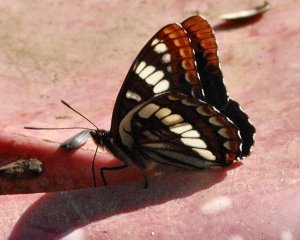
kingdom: Animalia
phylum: Arthropoda
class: Insecta
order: Lepidoptera
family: Nymphalidae
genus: Limenitis
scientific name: Limenitis lorquini
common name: Lorquin's Admiral
